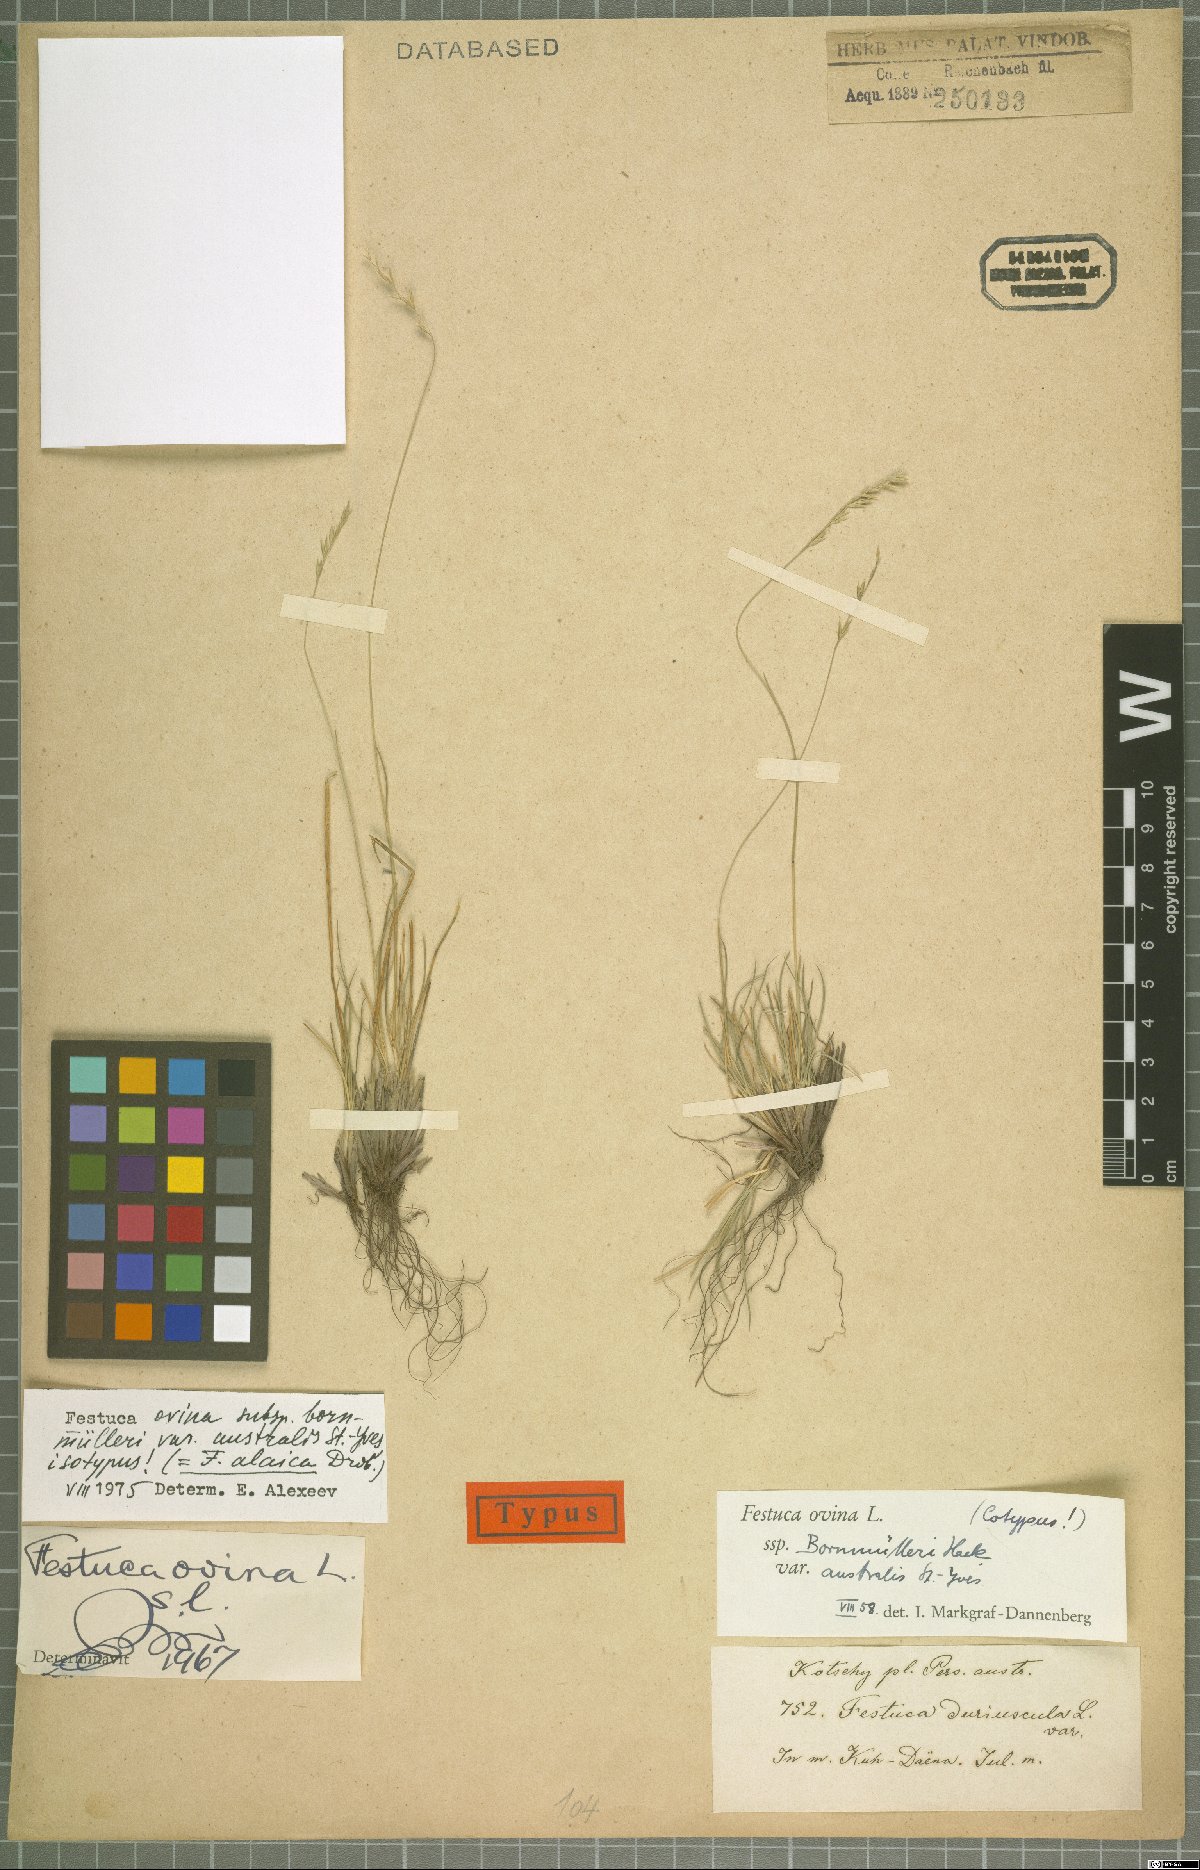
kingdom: Plantae
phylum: Tracheophyta
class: Liliopsida
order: Poales
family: Poaceae
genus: Festuca
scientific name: Festuca alaica
